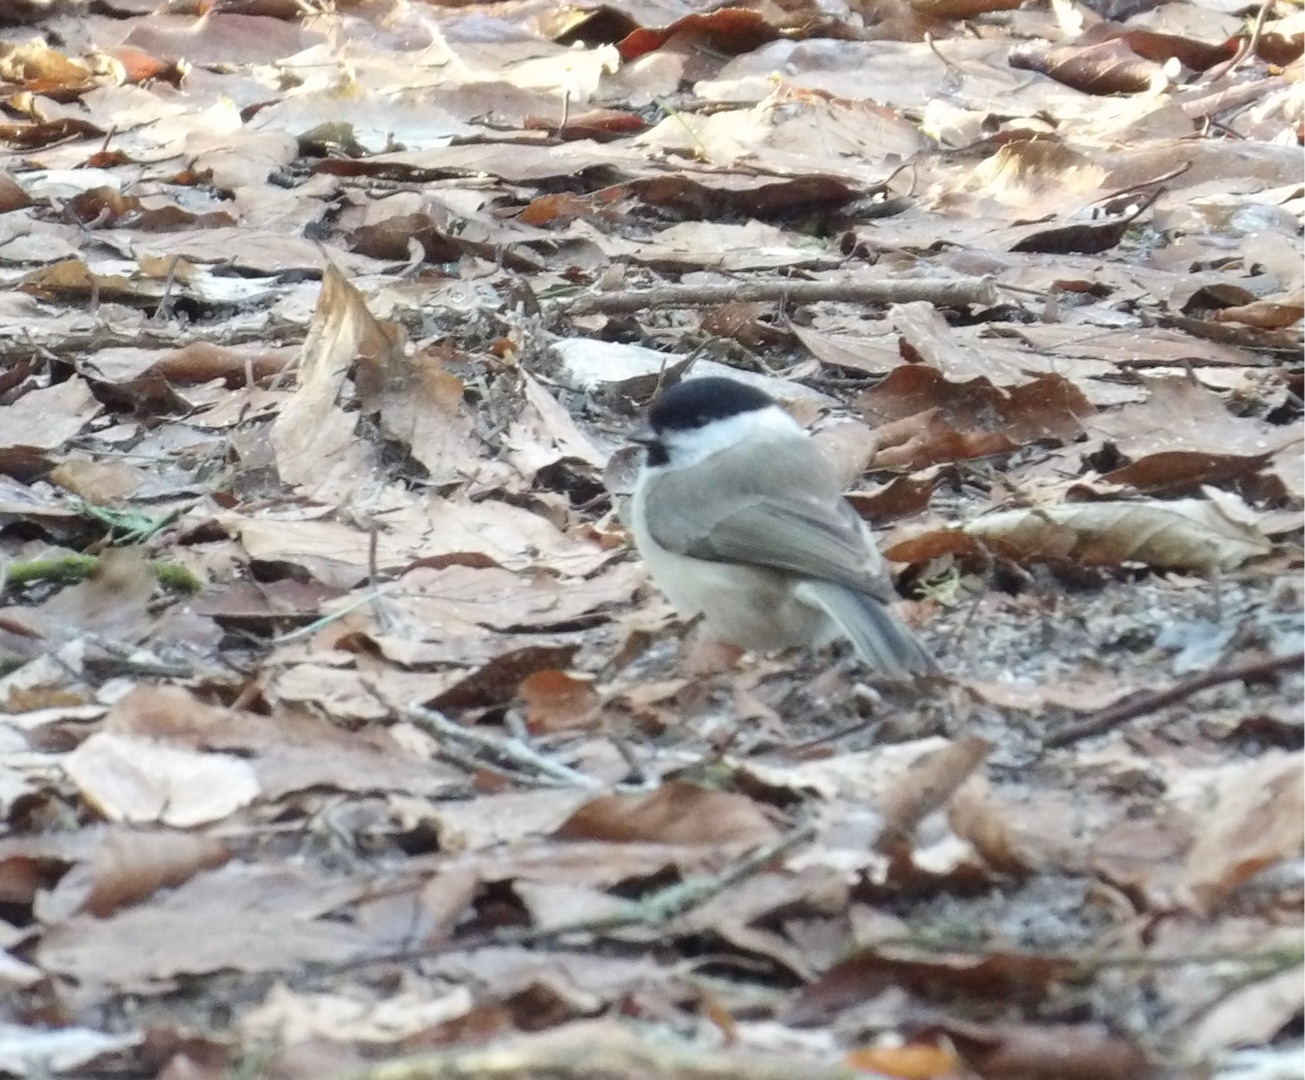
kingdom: Animalia
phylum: Chordata
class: Aves
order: Passeriformes
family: Paridae
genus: Poecile
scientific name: Poecile palustris
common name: Sumpmejse
